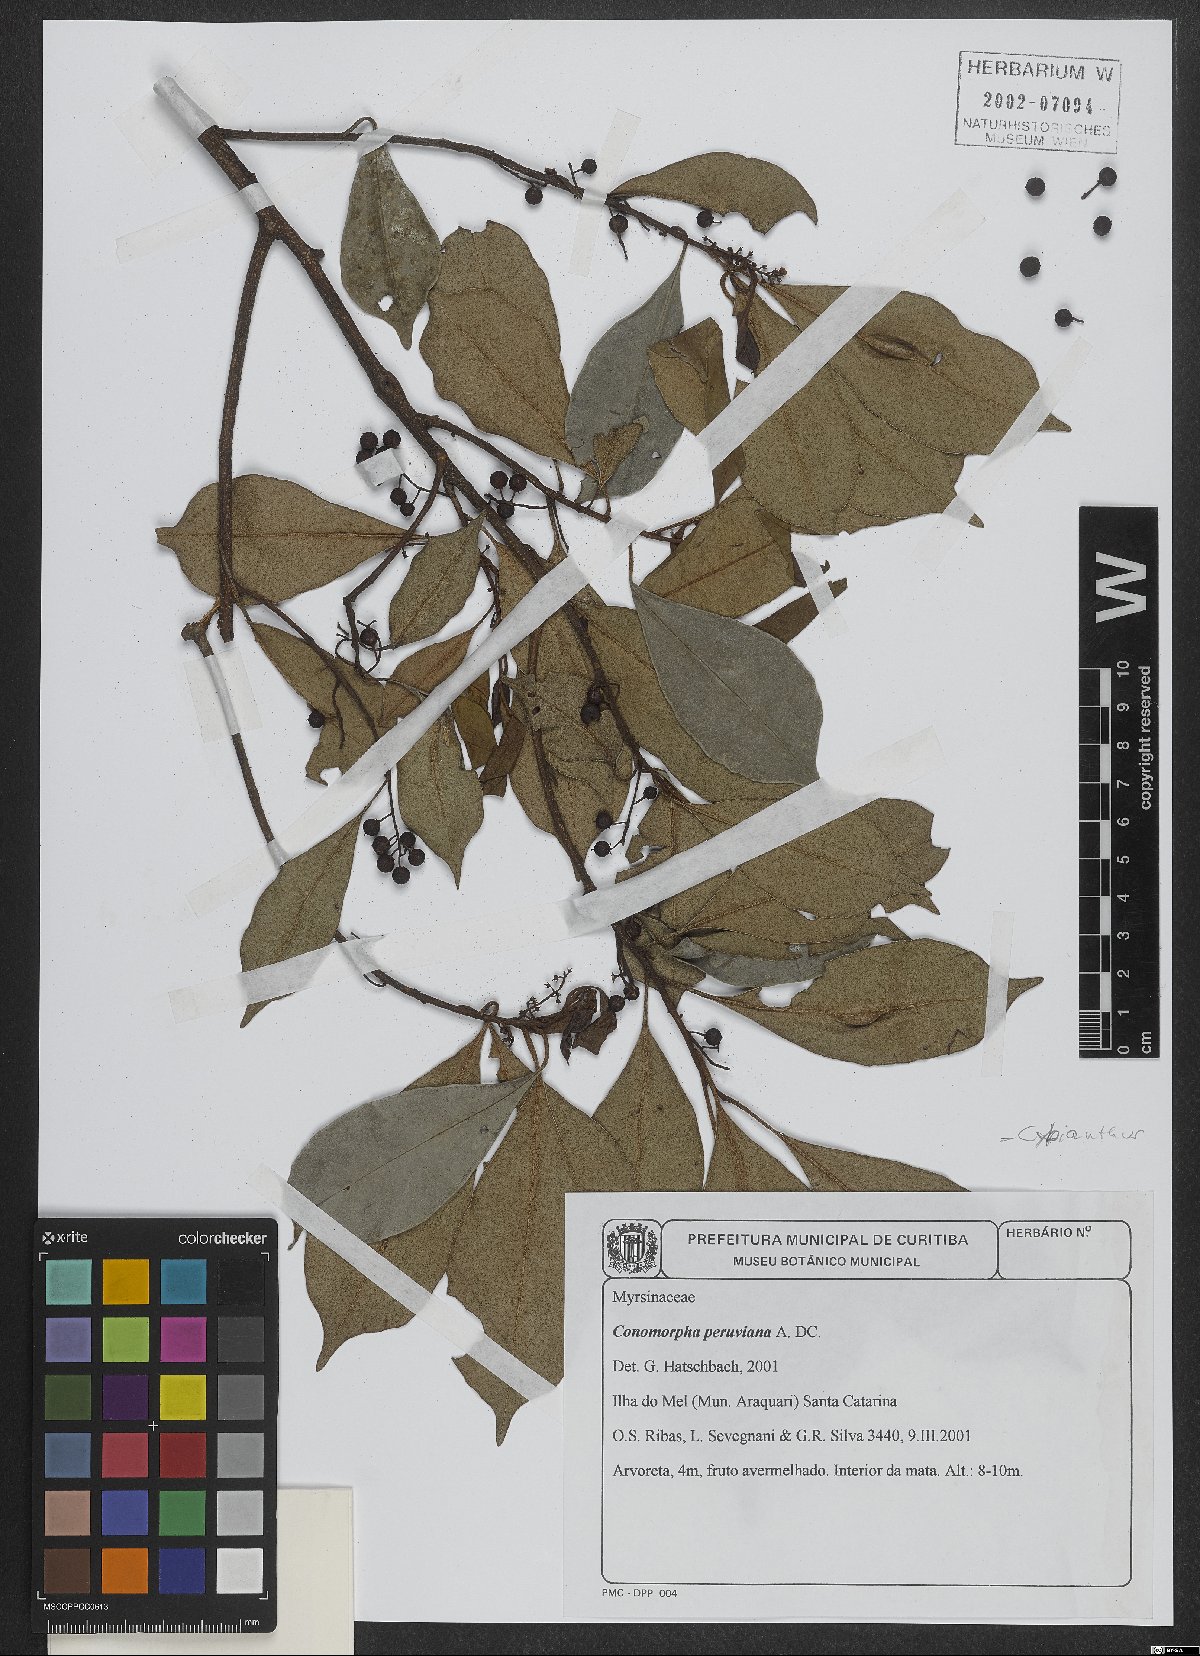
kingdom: Plantae
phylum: Tracheophyta
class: Magnoliopsida
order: Ericales
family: Primulaceae
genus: Cybianthus
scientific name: Cybianthus peruvianus
